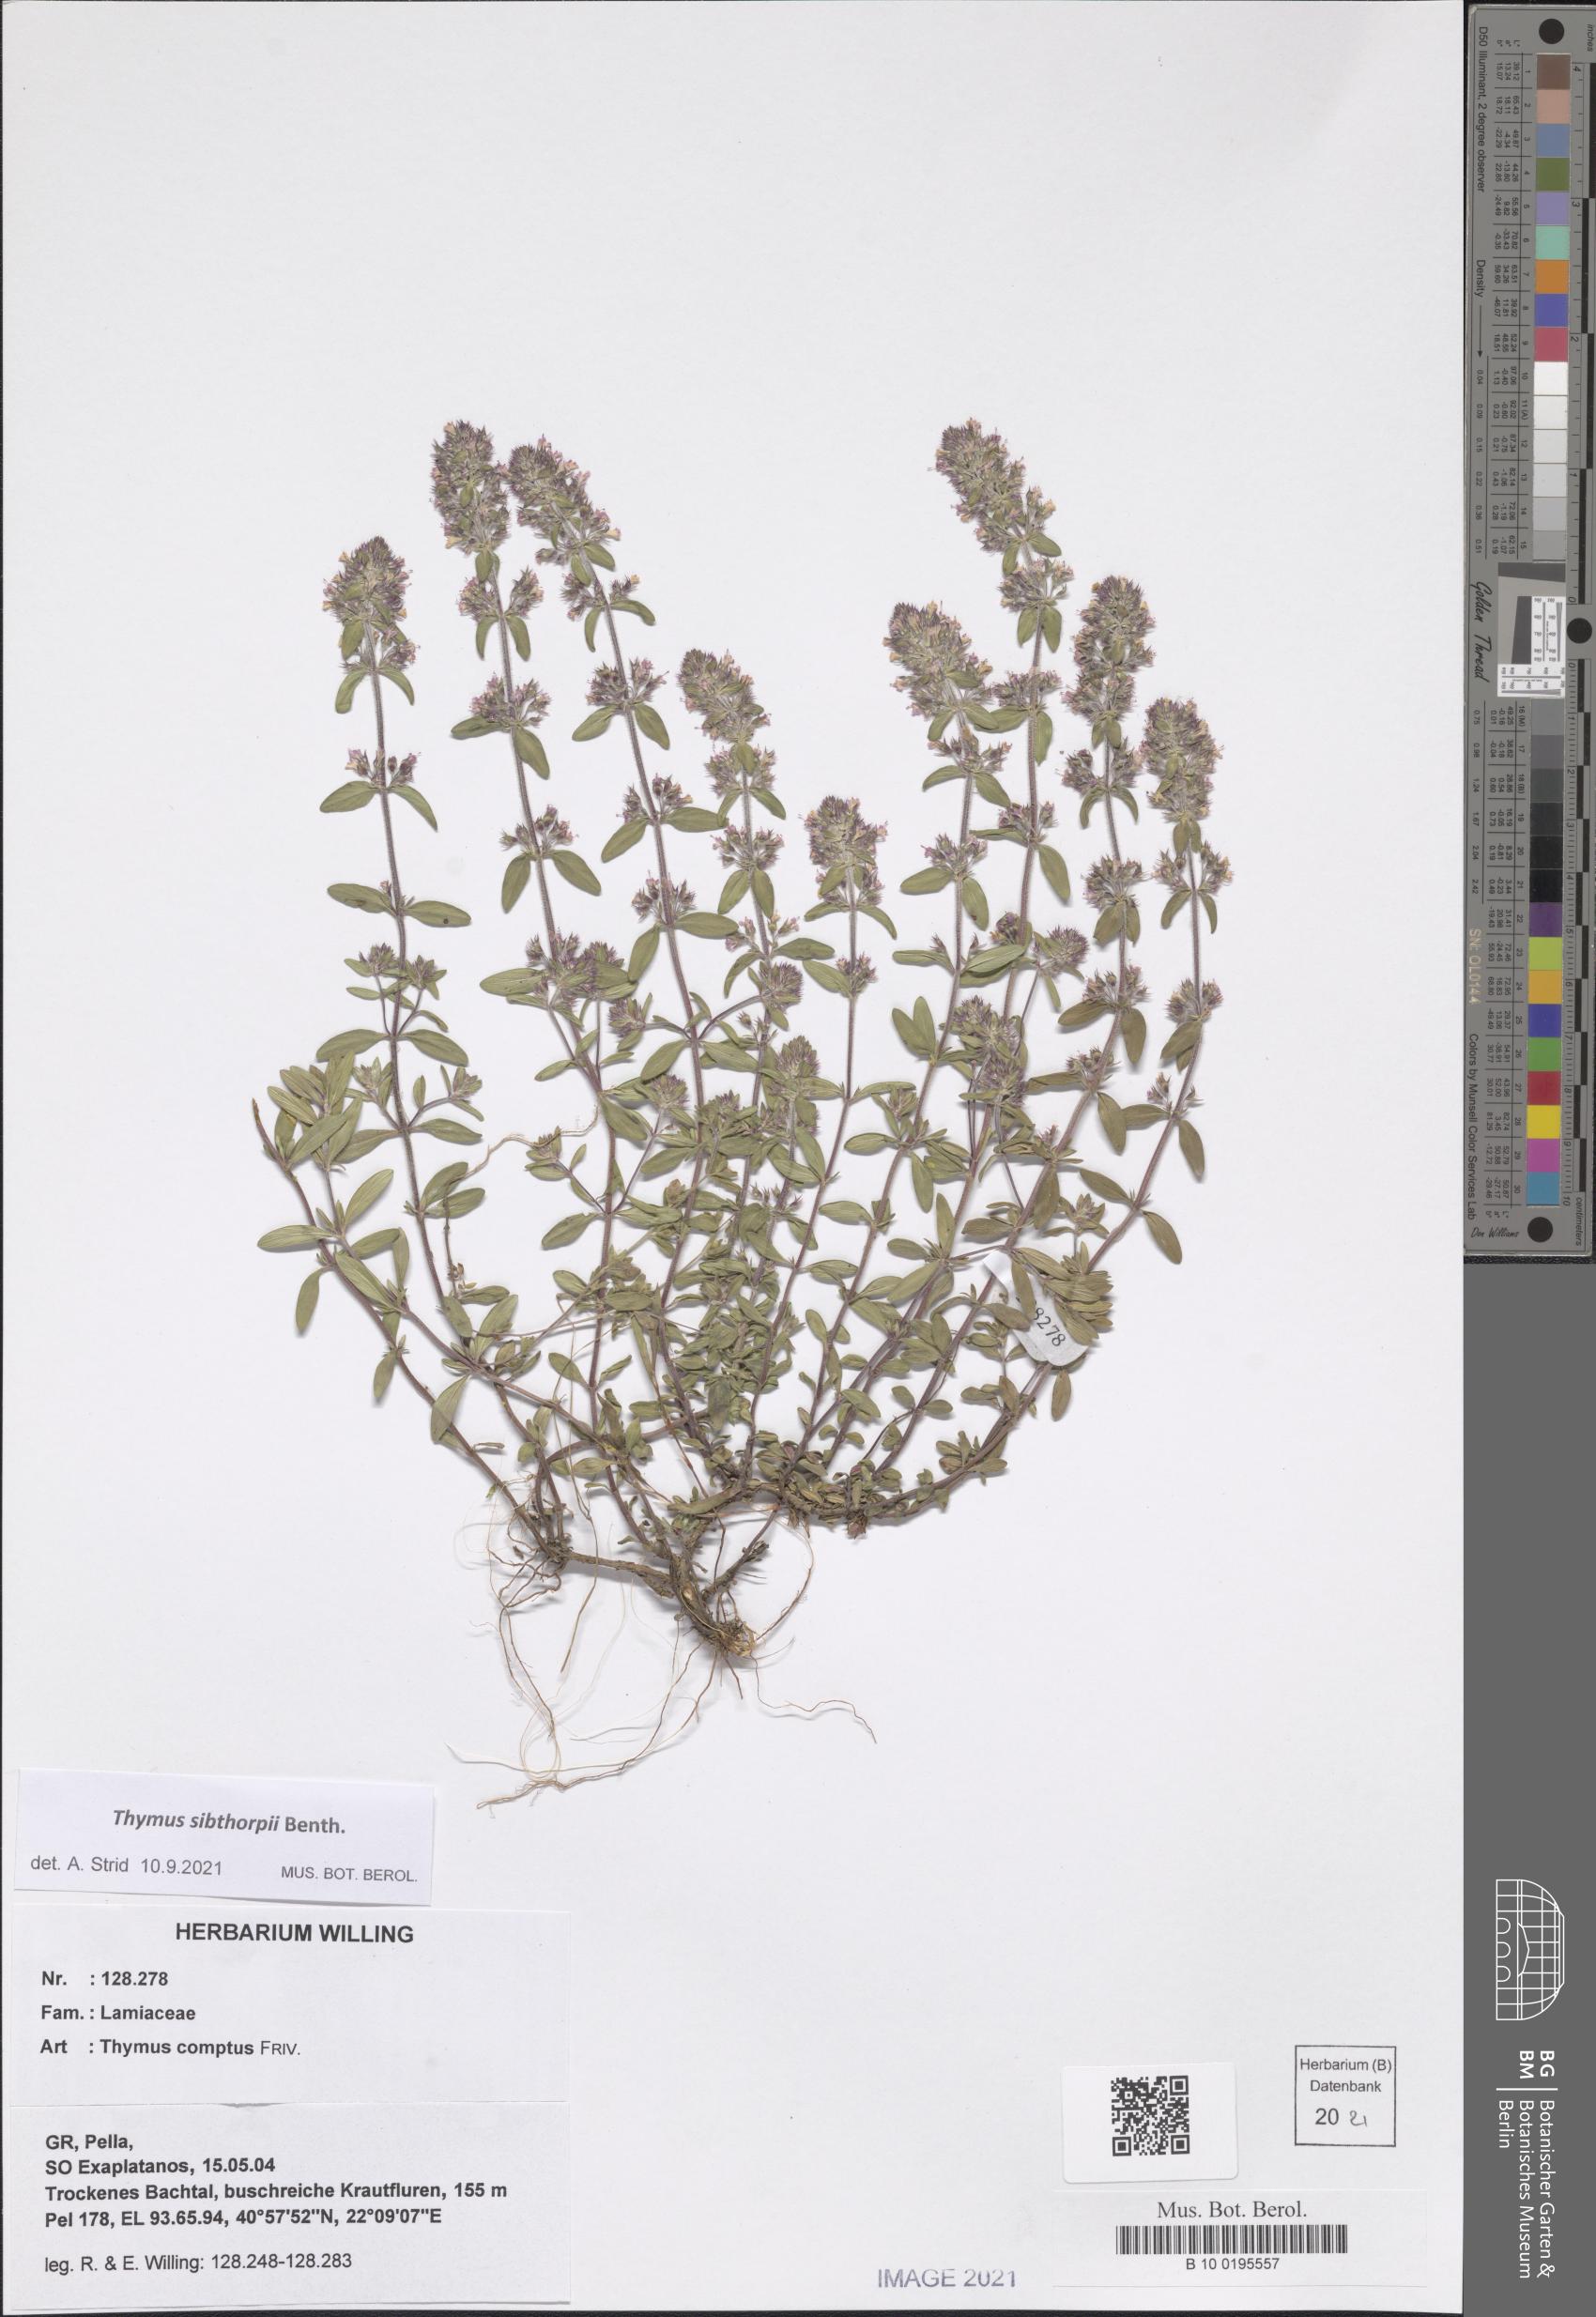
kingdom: Plantae
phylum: Tracheophyta
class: Magnoliopsida
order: Lamiales
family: Lamiaceae
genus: Thymus
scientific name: Thymus sibthorpii
